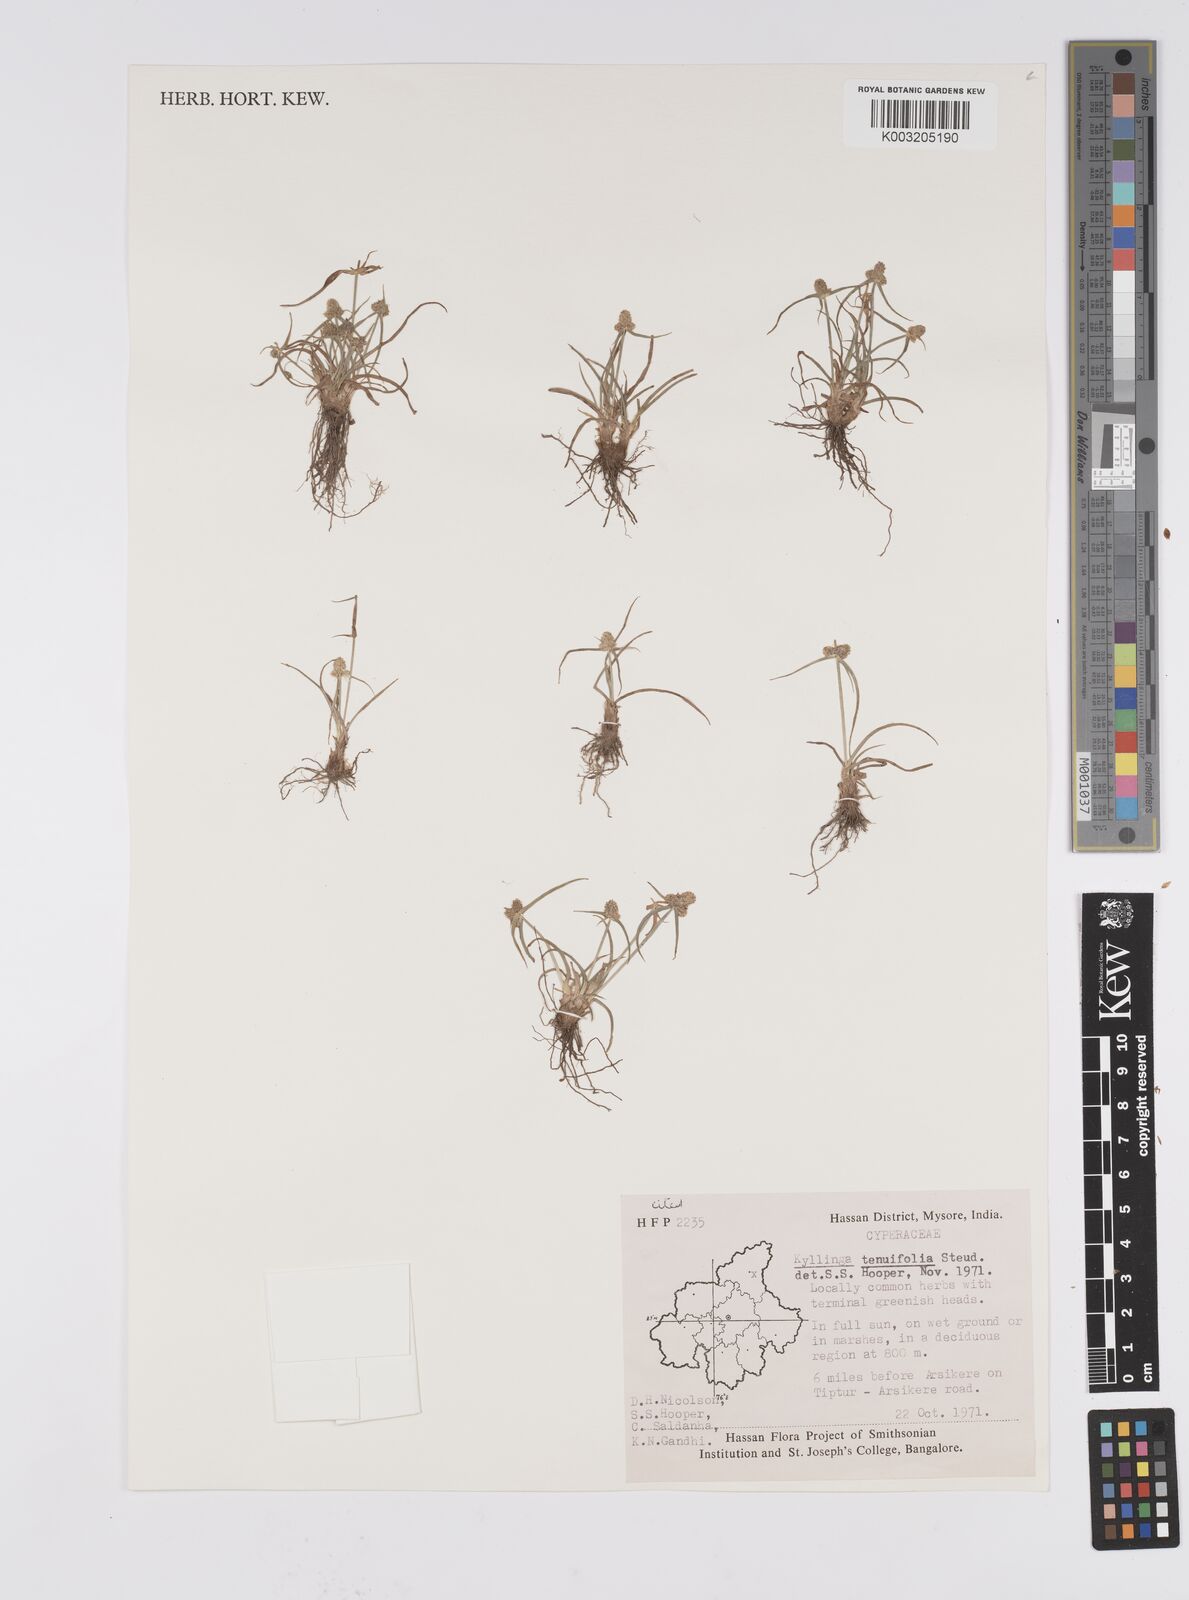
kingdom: Plantae
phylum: Tracheophyta
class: Liliopsida
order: Poales
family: Cyperaceae
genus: Cyperus
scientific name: Cyperus
